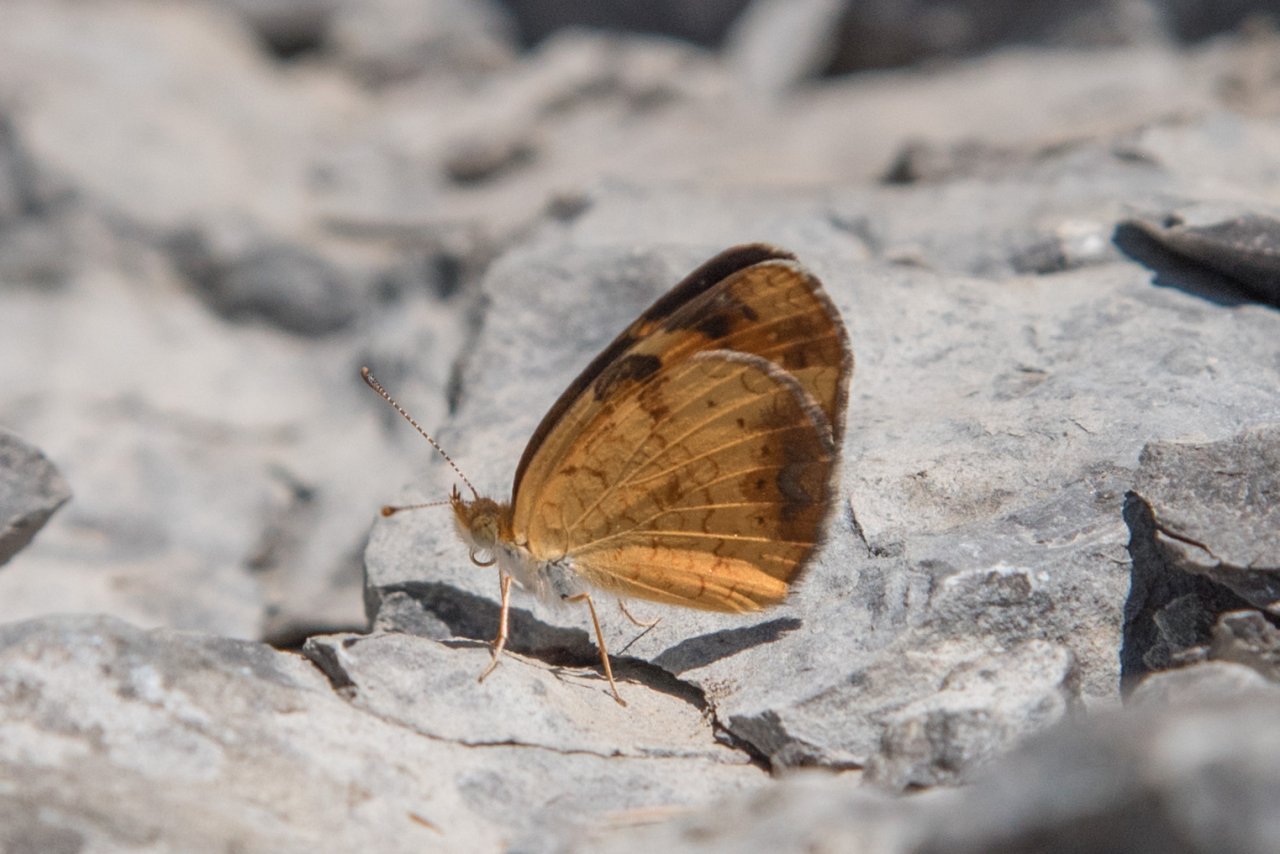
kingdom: Animalia
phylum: Arthropoda
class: Insecta
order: Lepidoptera
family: Nymphalidae
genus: Phyciodes
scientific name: Phyciodes tharos
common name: Northern Crescent
